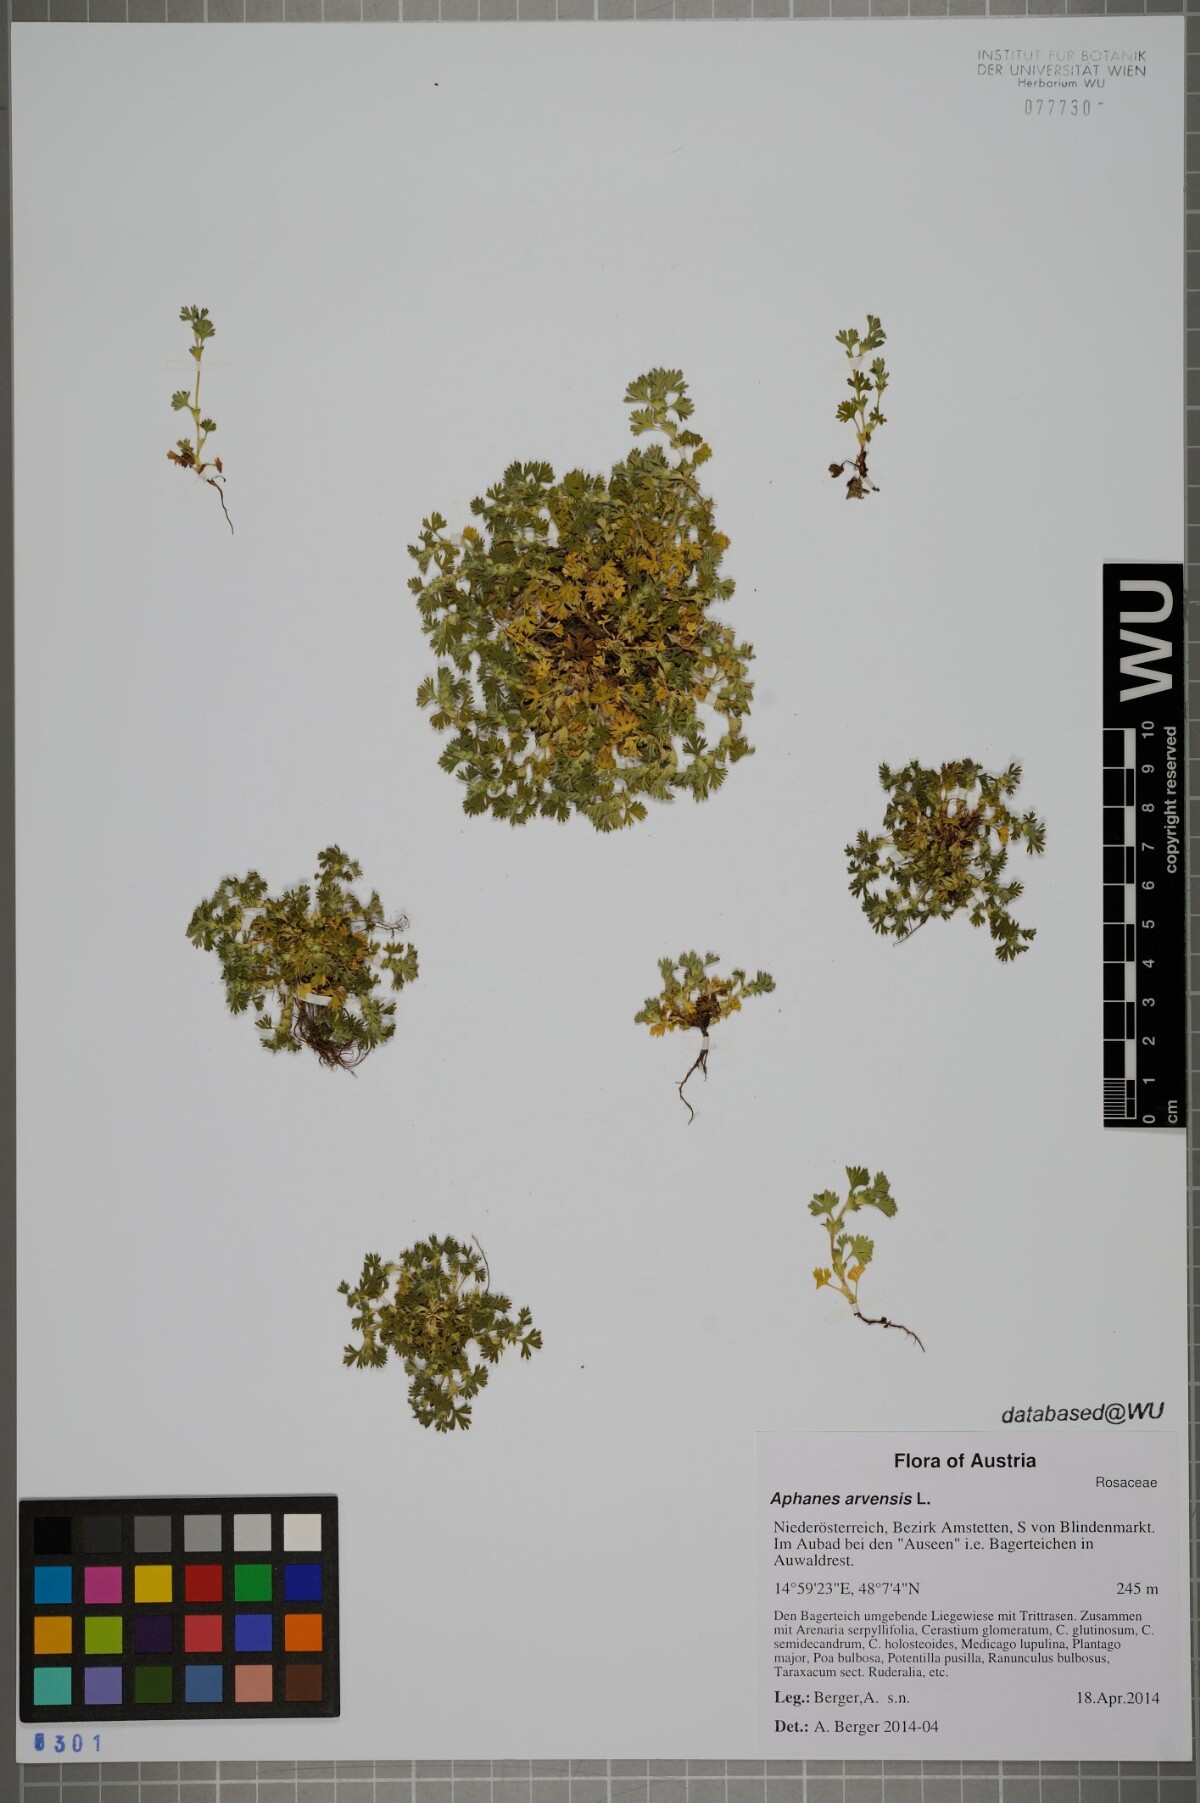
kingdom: Plantae
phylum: Tracheophyta
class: Magnoliopsida
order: Rosales
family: Rosaceae
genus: Aphanes
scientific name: Aphanes arvensis
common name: Parsley-piert
